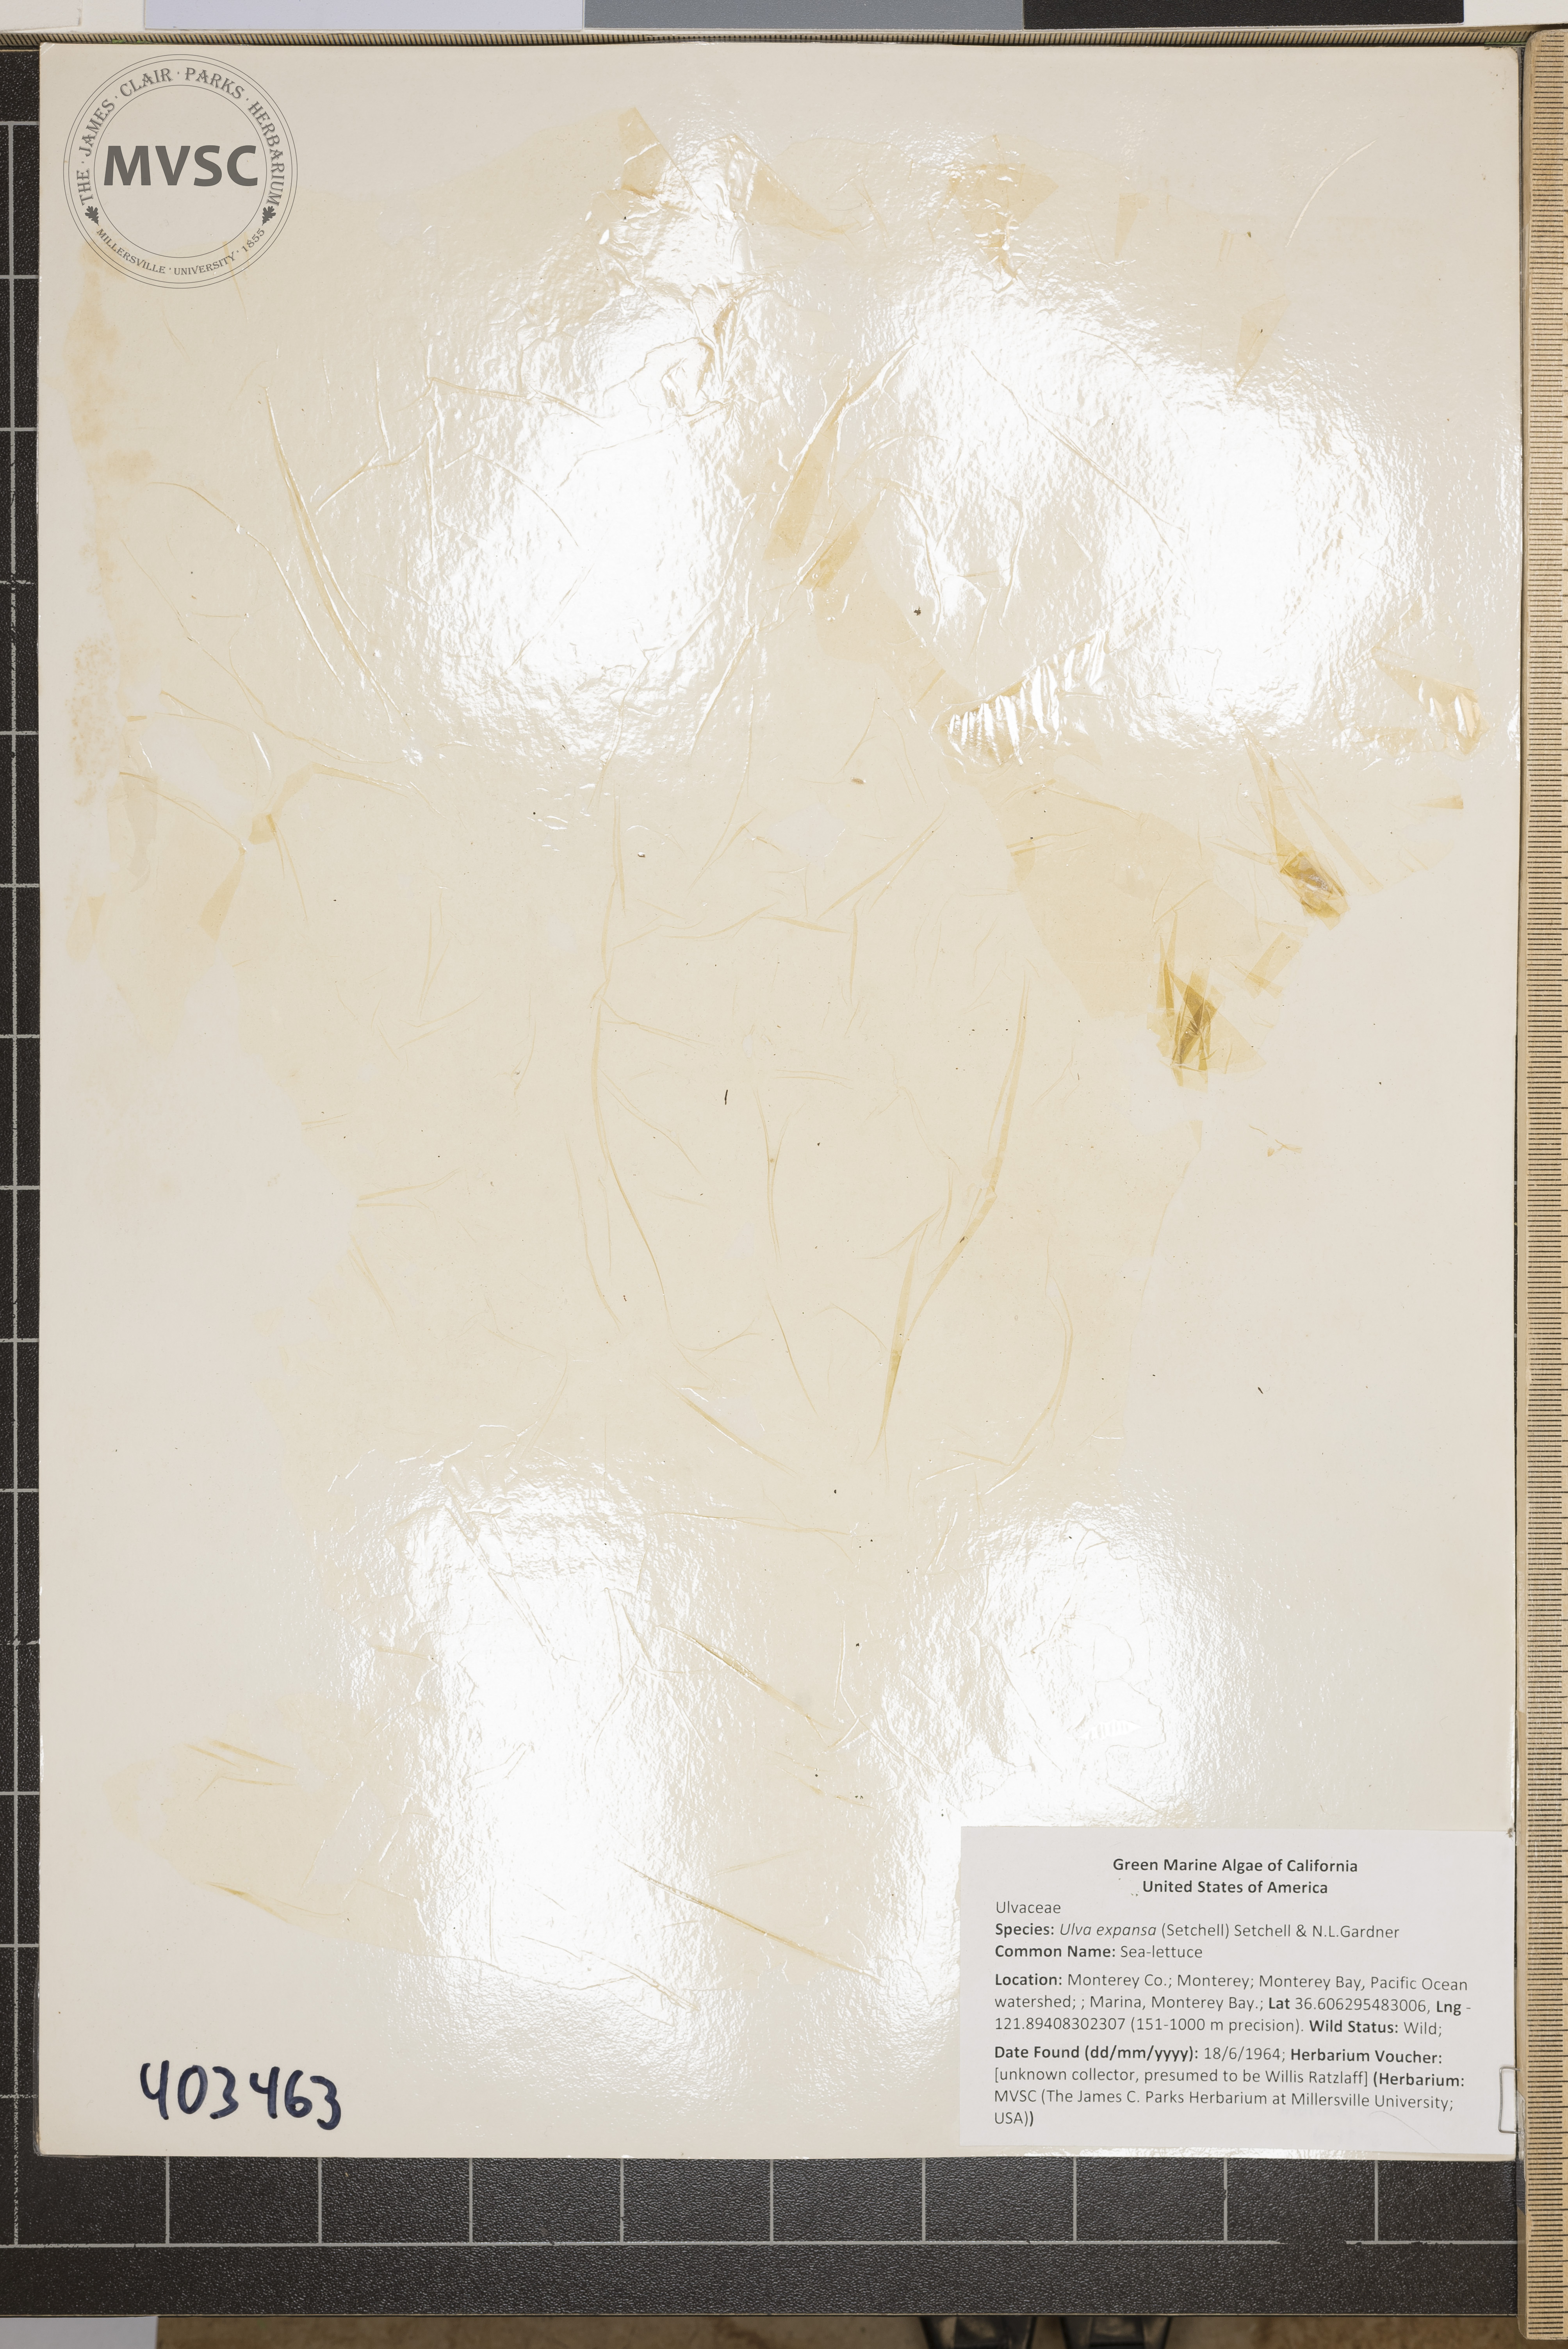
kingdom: Plantae
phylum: Chlorophyta
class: Ulvophyceae
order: Ulvales
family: Ulvaceae
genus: Ulva
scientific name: Ulva
